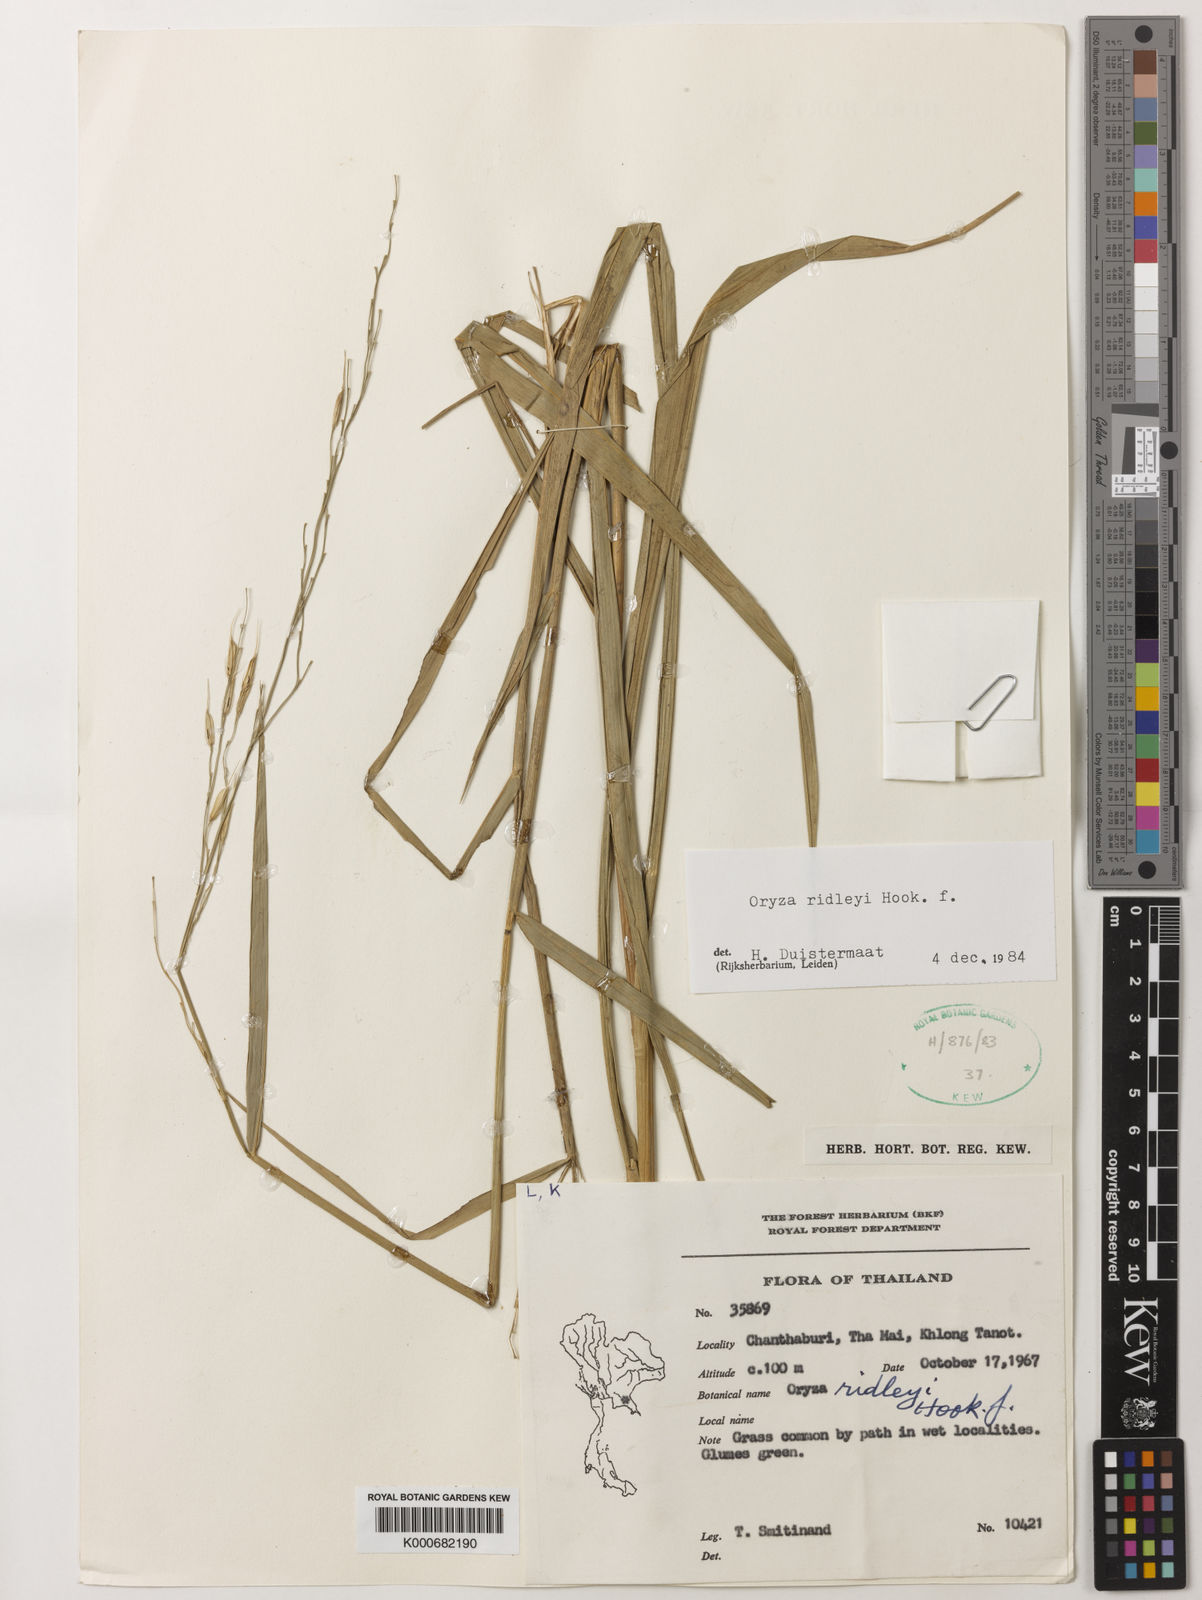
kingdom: Plantae
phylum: Tracheophyta
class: Liliopsida
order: Poales
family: Poaceae
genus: Oryza
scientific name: Oryza ridleyi
